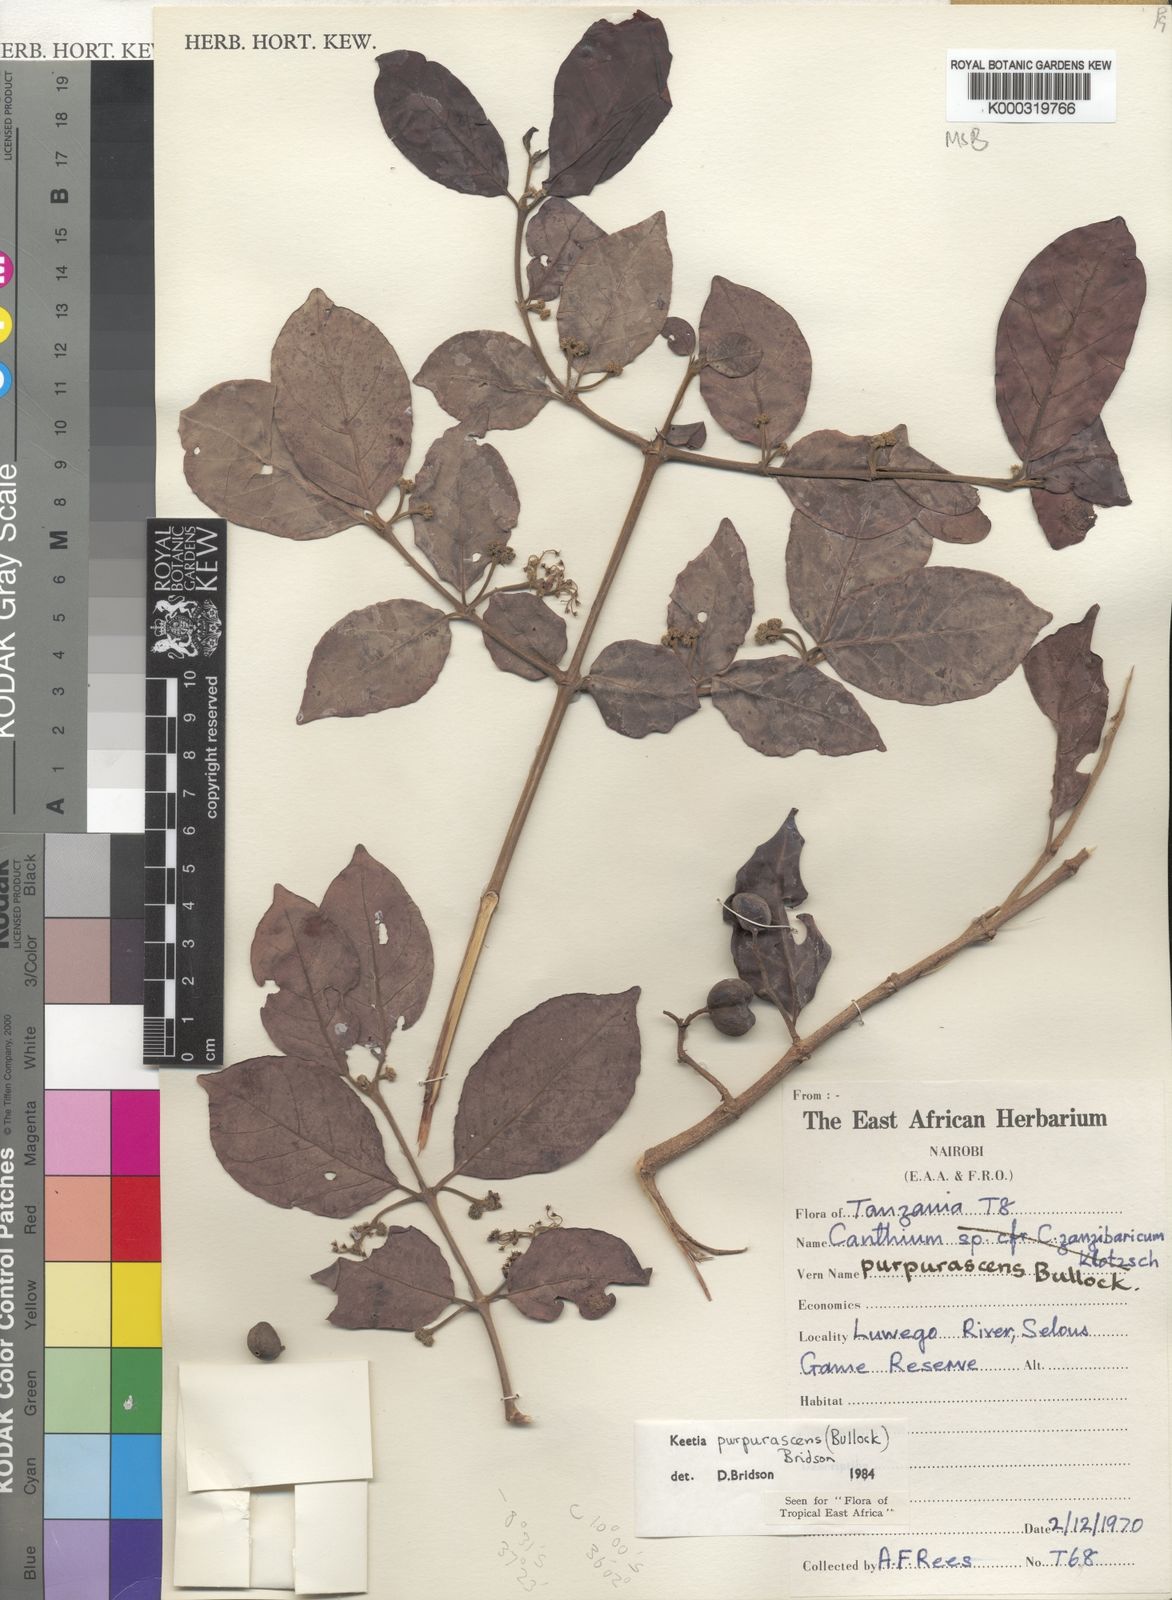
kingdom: Plantae
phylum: Tracheophyta
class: Magnoliopsida
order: Gentianales
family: Rubiaceae
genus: Keetia
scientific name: Keetia purpurascens
